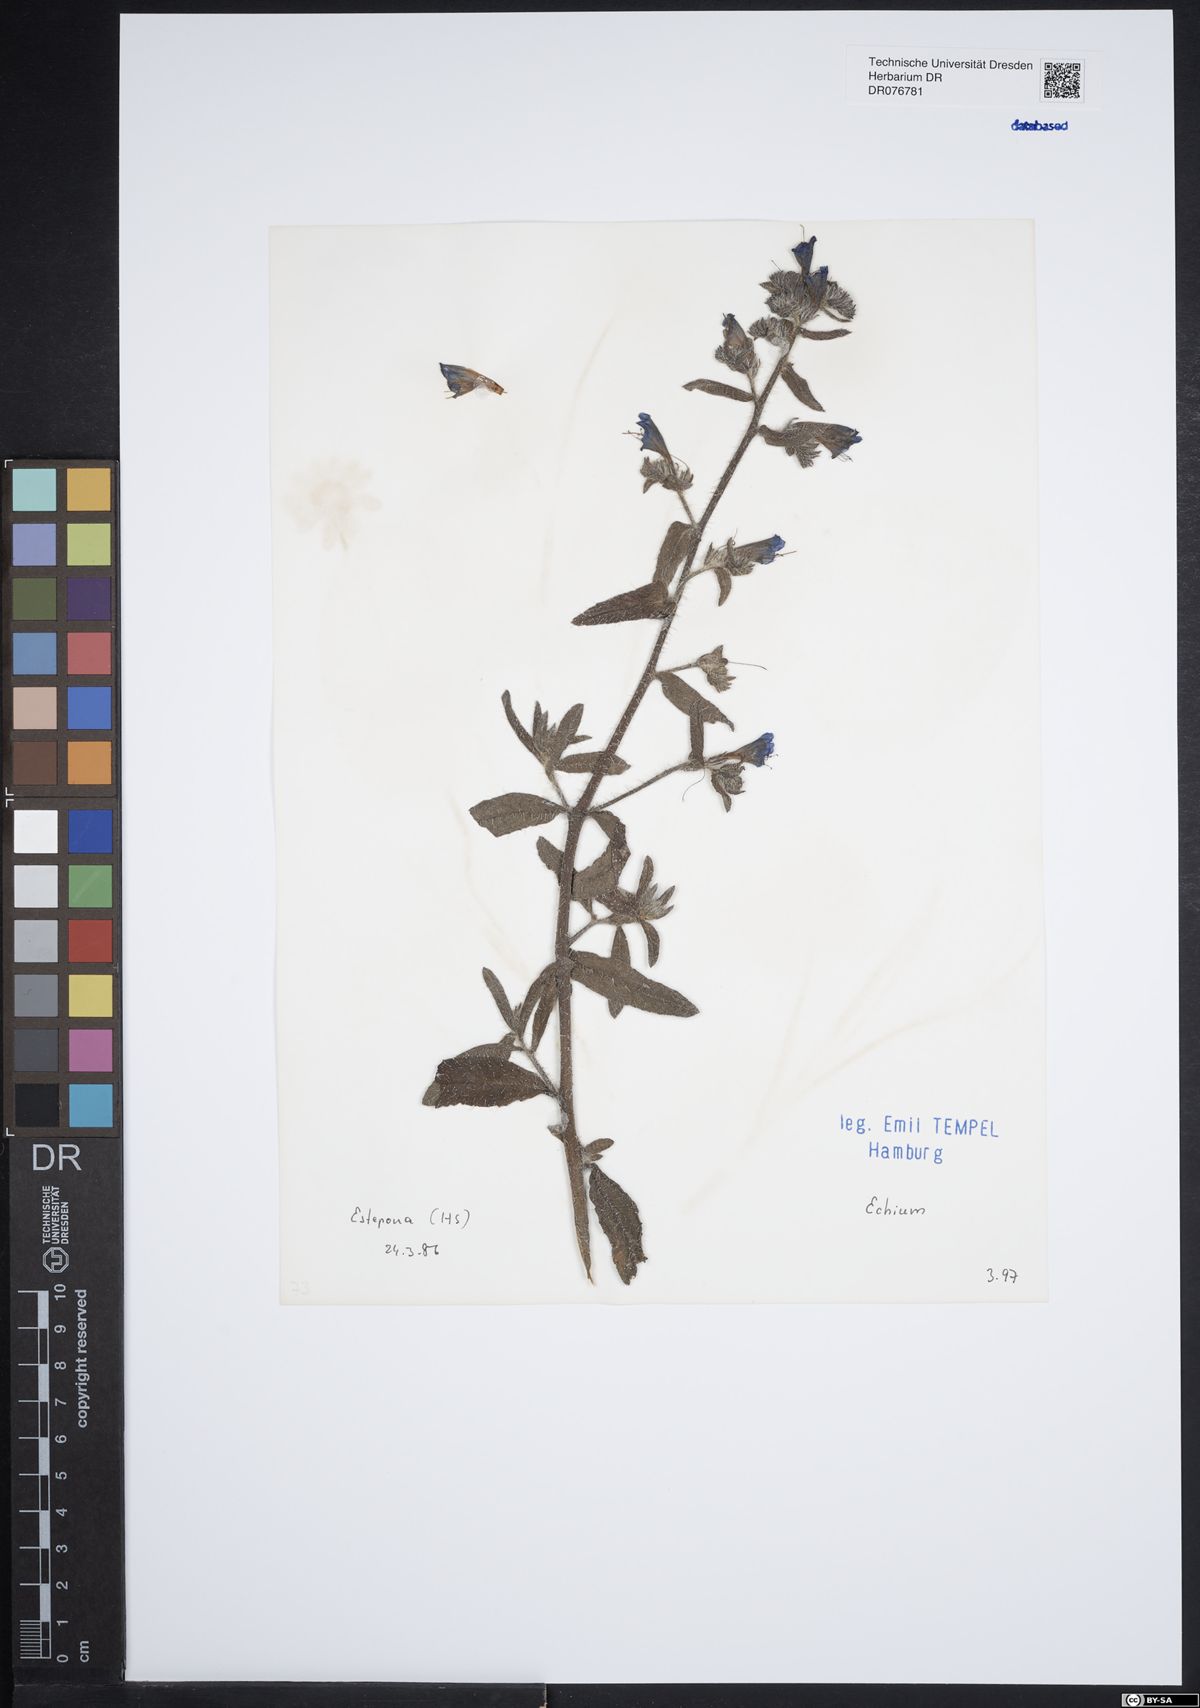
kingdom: Plantae
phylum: Tracheophyta
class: Magnoliopsida
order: Boraginales
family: Boraginaceae
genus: Echium
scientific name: Echium
